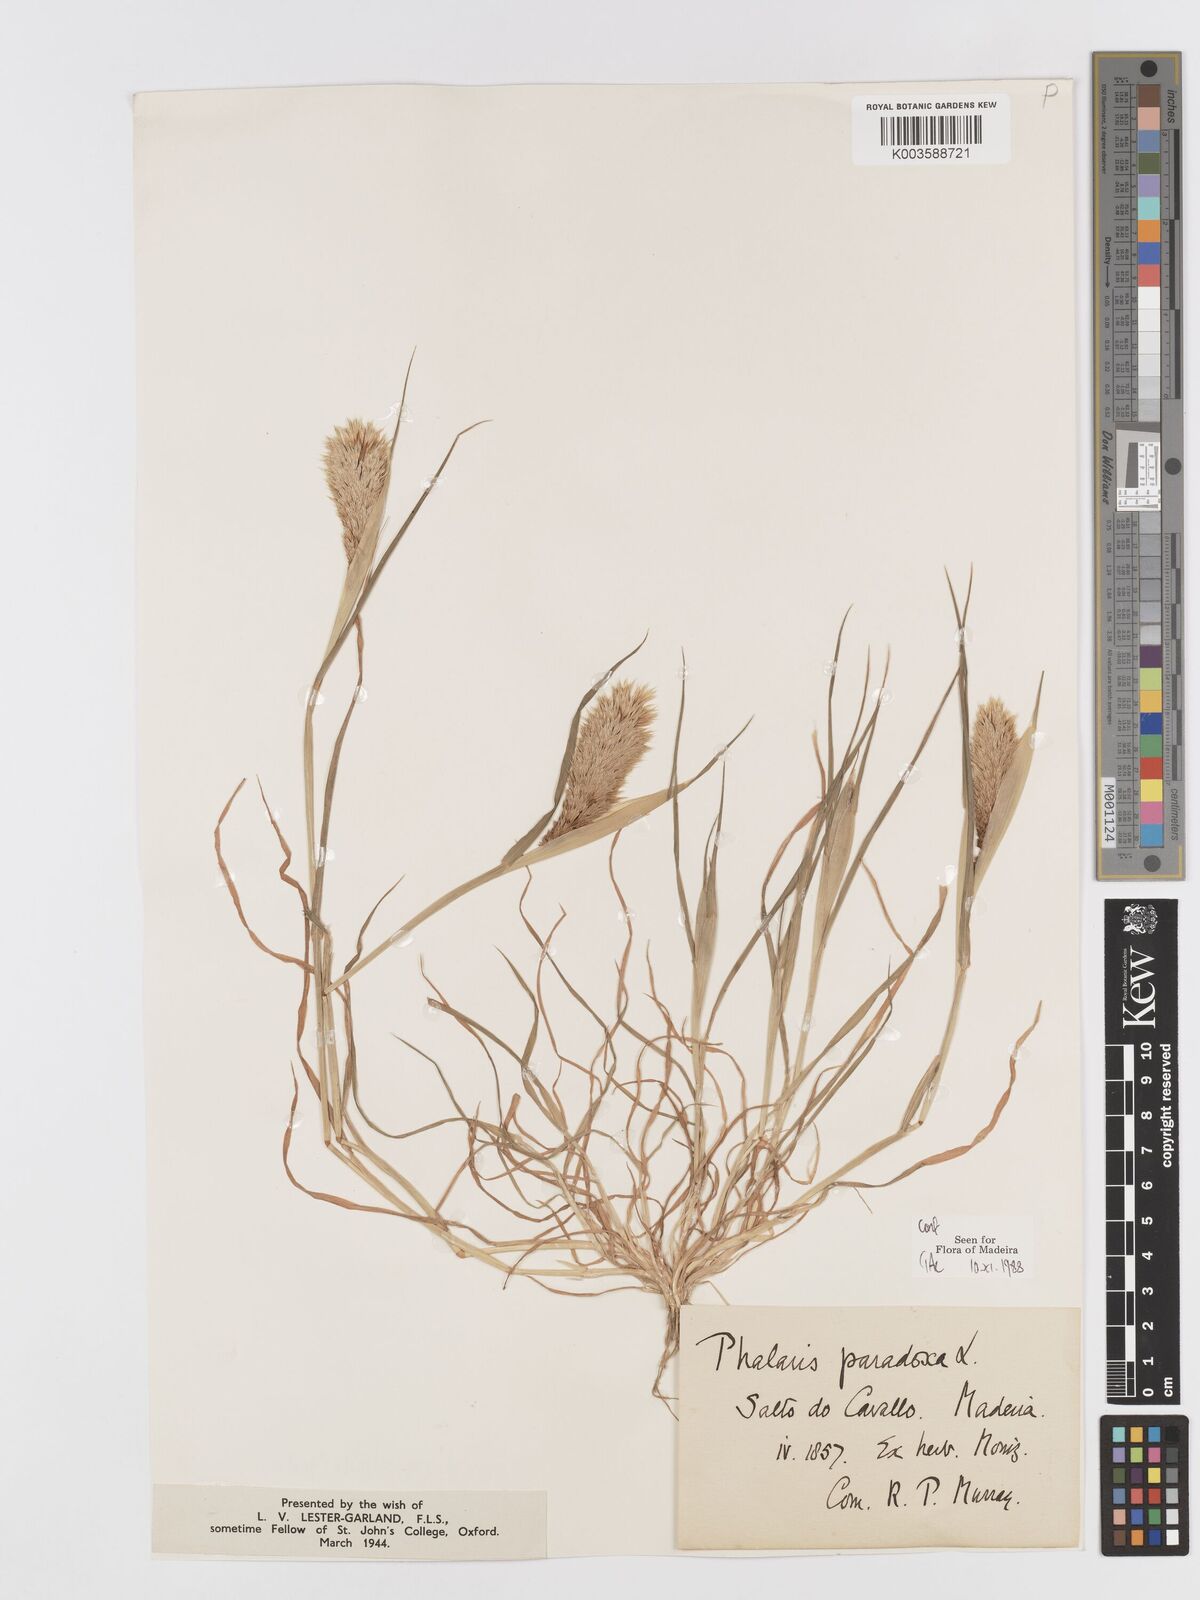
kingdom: Plantae
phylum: Tracheophyta
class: Liliopsida
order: Poales
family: Poaceae
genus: Phalaris
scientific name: Phalaris paradoxa
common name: Awned canary-grass
